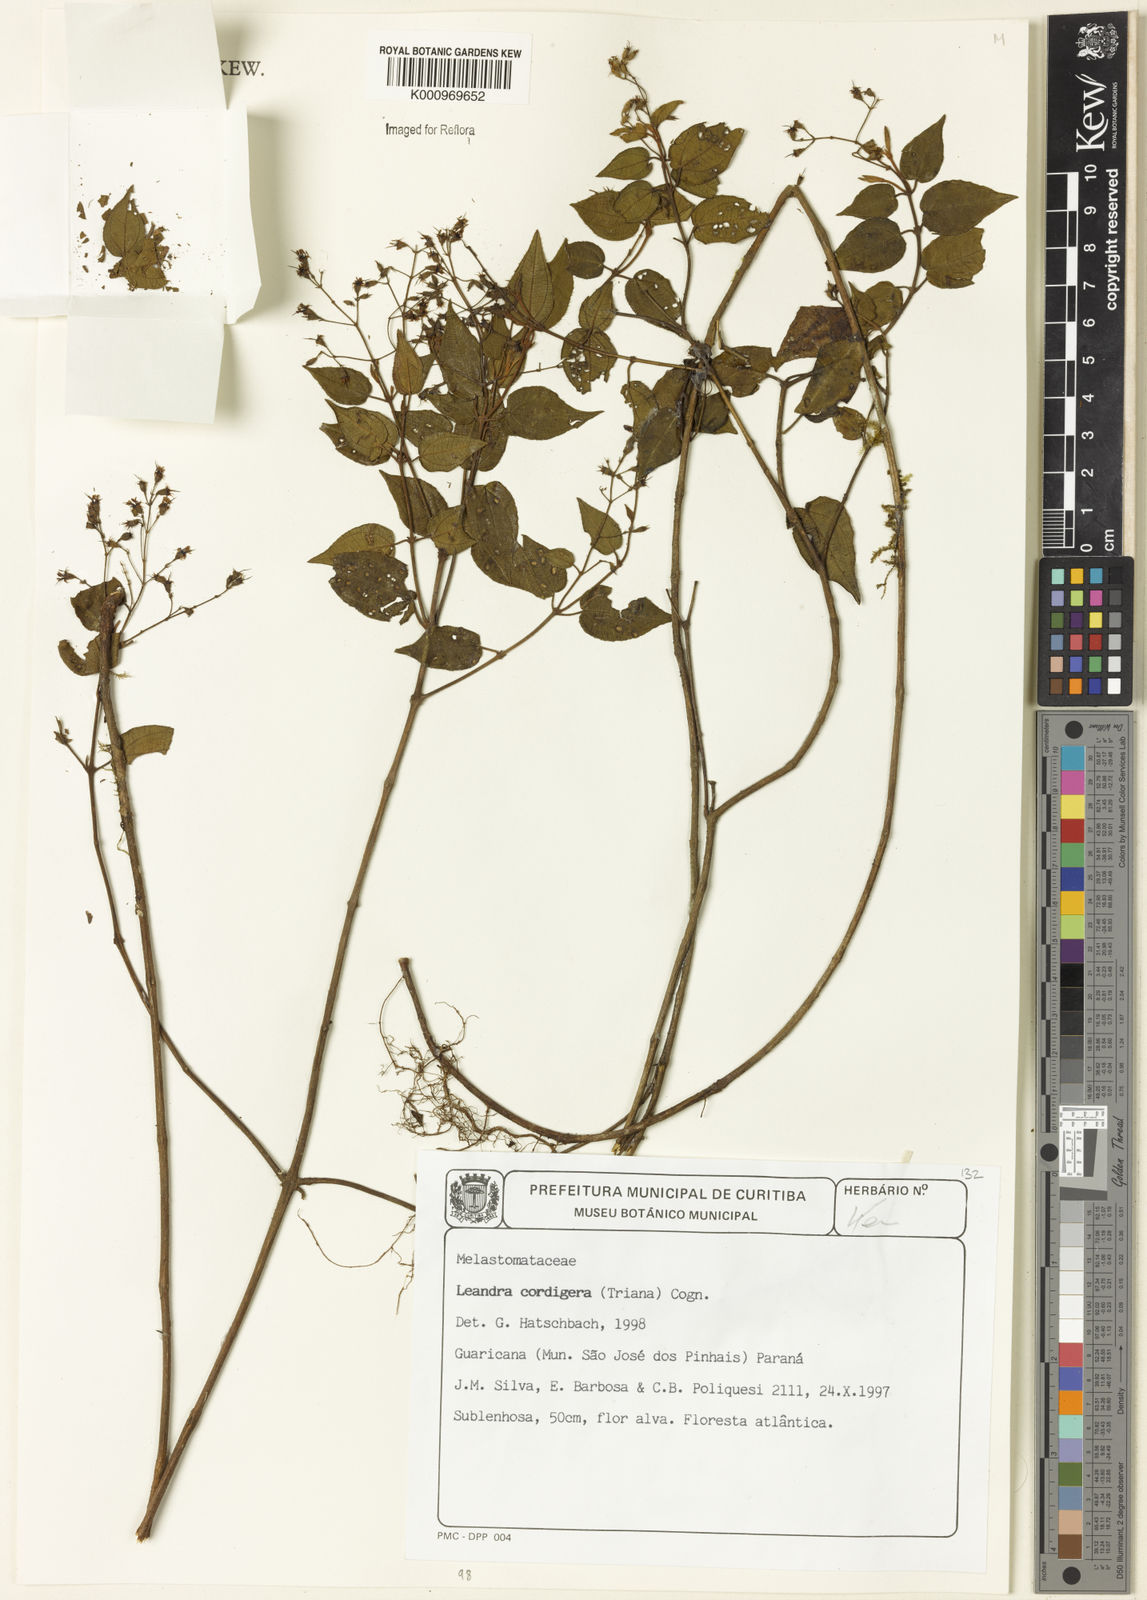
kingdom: Plantae
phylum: Tracheophyta
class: Magnoliopsida
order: Myrtales
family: Melastomataceae
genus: Miconia
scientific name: Miconia cordigera
